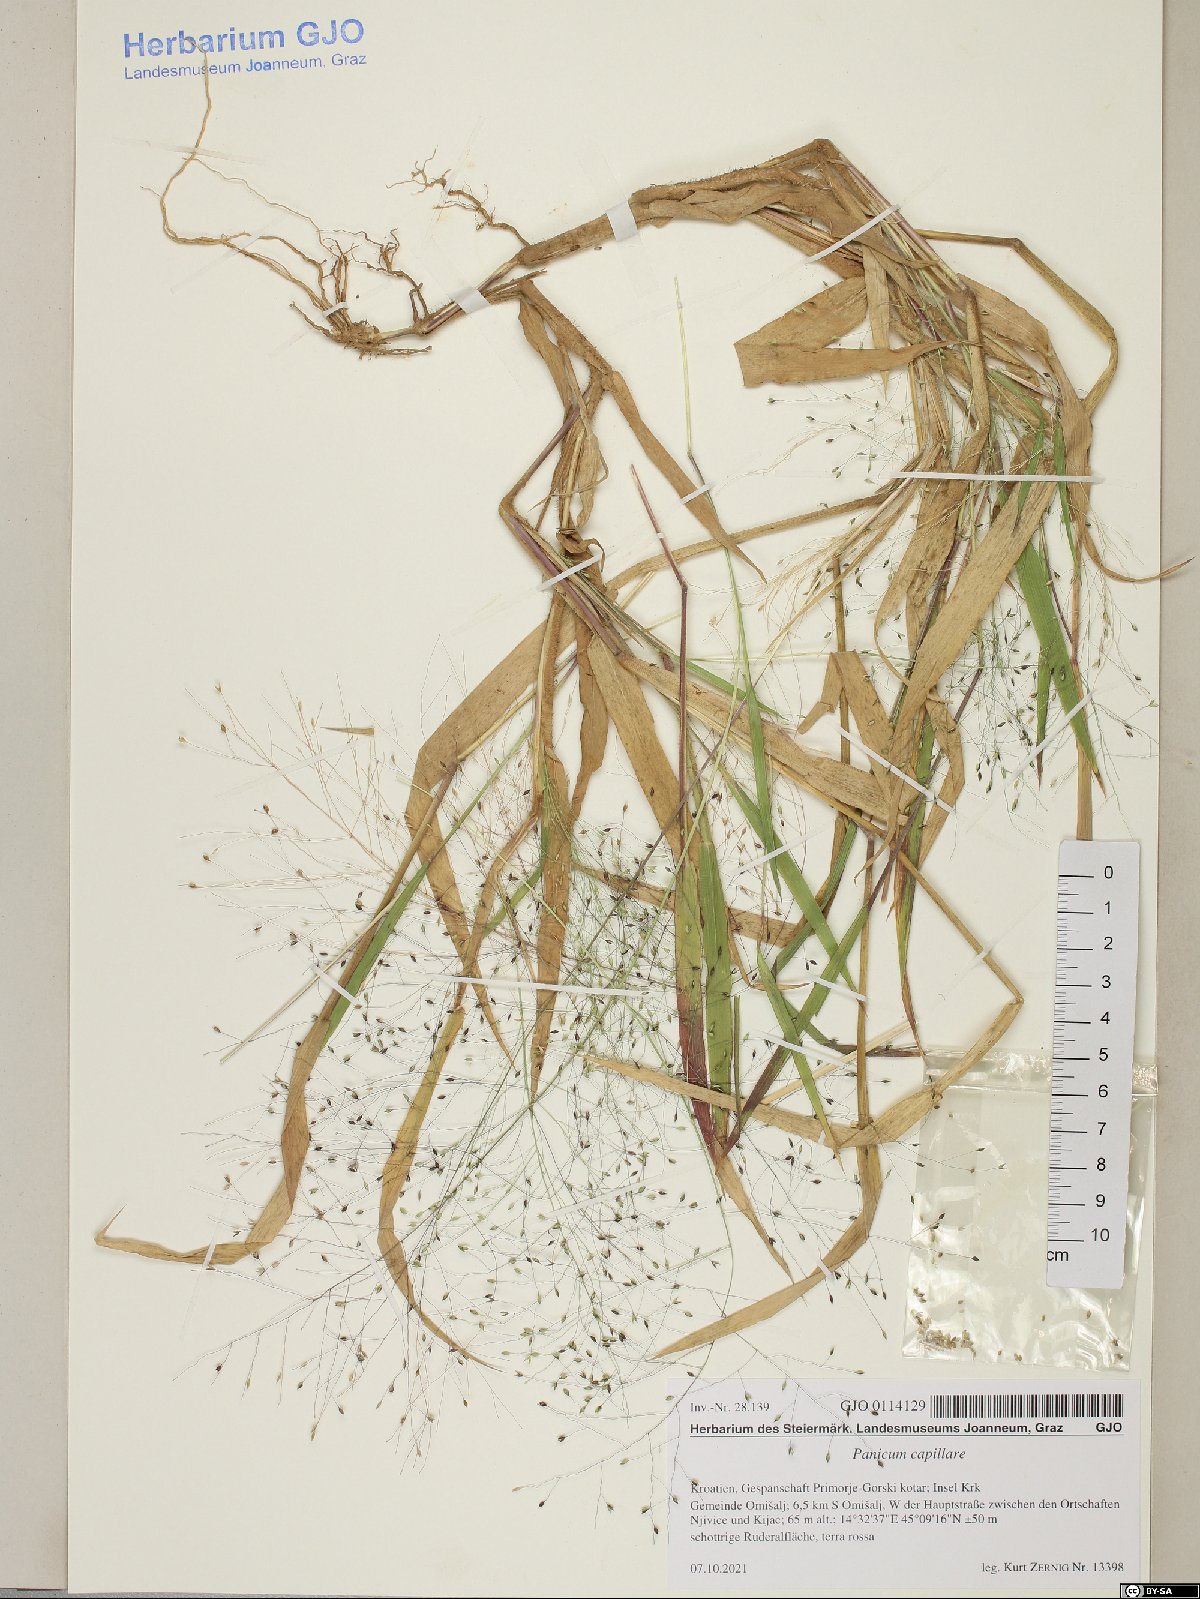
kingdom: Plantae
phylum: Tracheophyta
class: Liliopsida
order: Poales
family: Poaceae
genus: Panicum
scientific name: Panicum capillare
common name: Witch-grass
